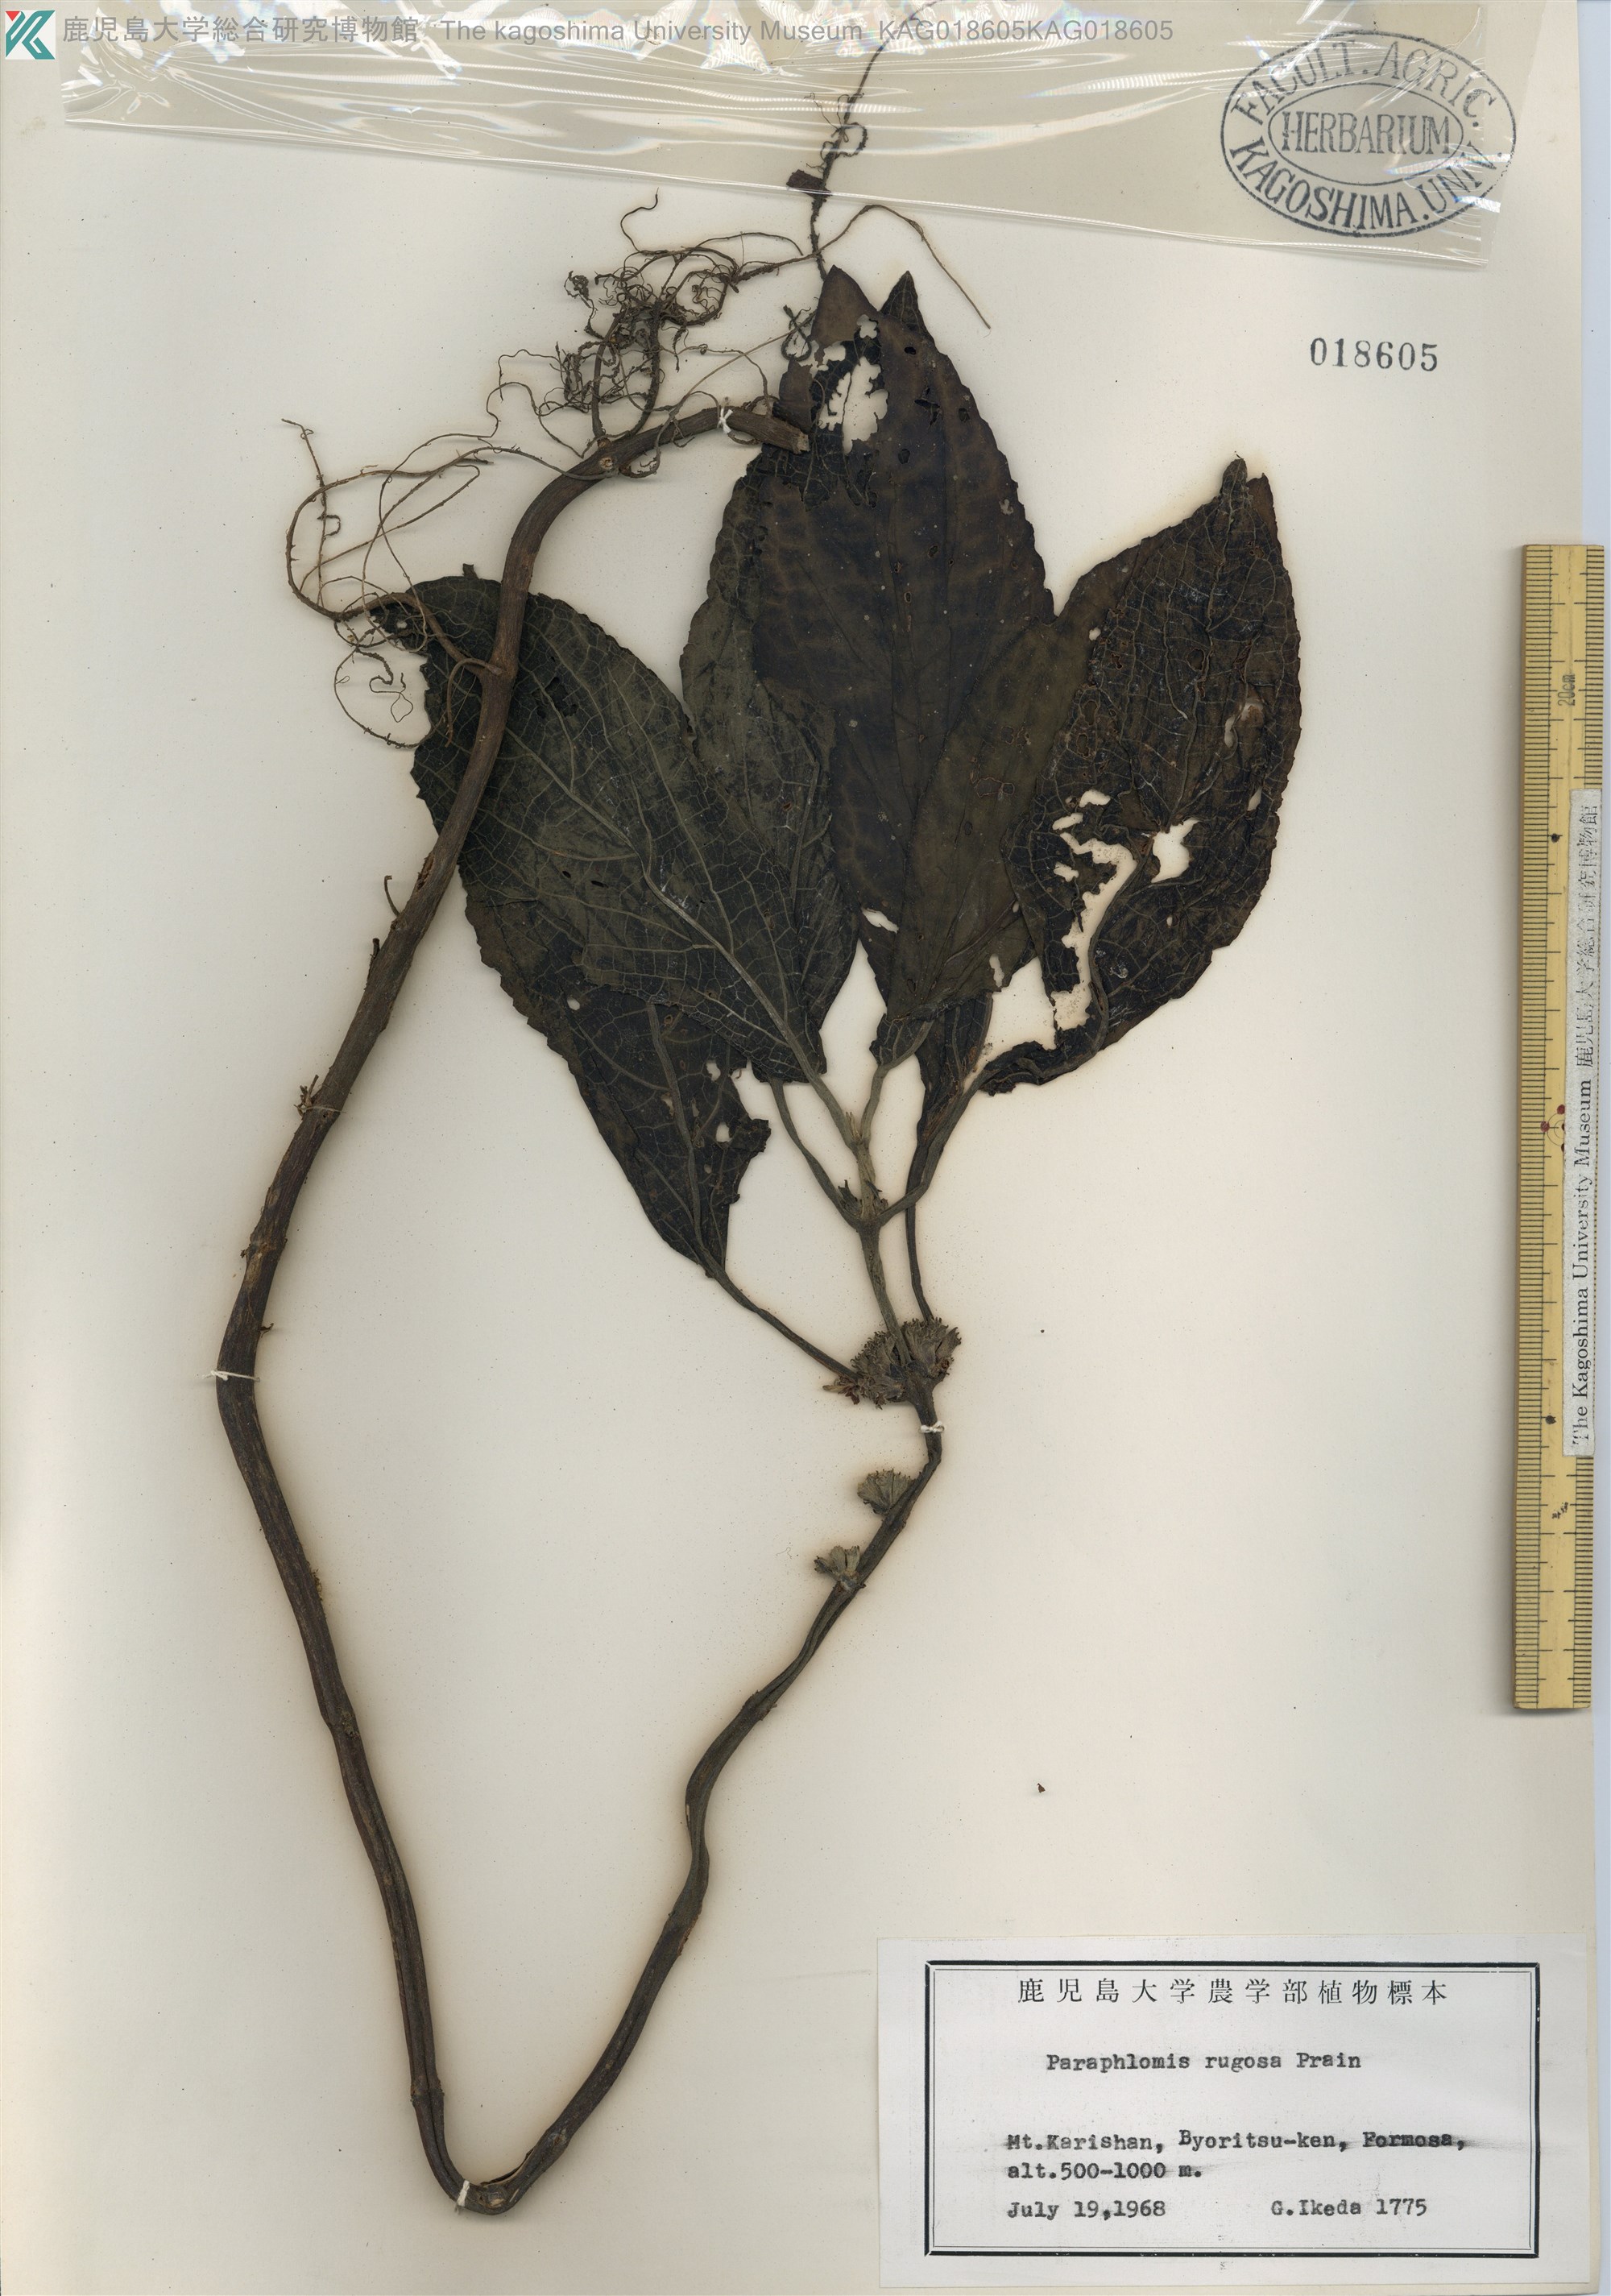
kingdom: Plantae
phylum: Tracheophyta
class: Magnoliopsida
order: Lamiales
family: Lamiaceae
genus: Paraphlomis
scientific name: Paraphlomis formosana
